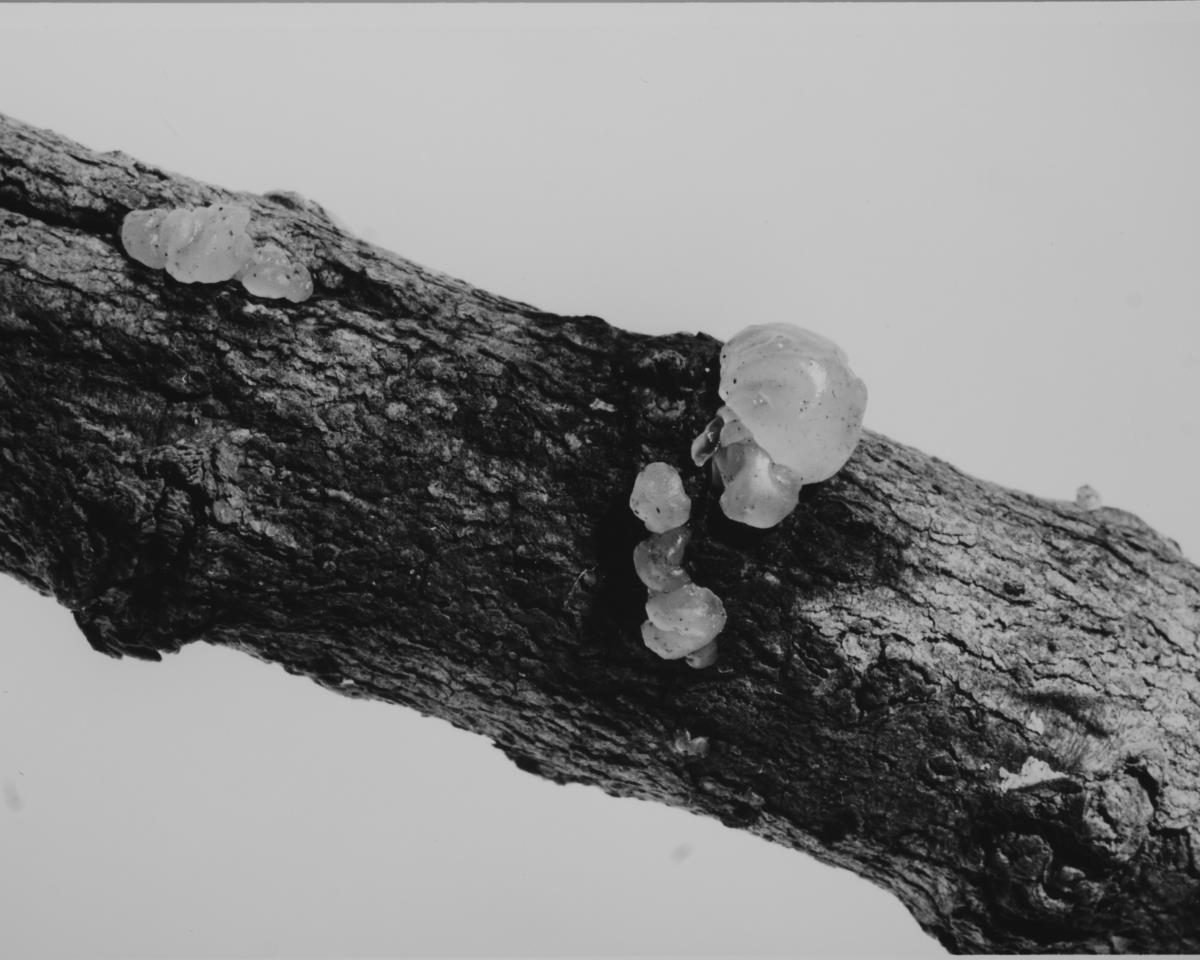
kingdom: Fungi
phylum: Basidiomycota
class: Agaricomycetes
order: Auriculariales
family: Hyaloriaceae
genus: Myxarium
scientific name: Myxarium nucleatum
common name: Crystal brain fungus
